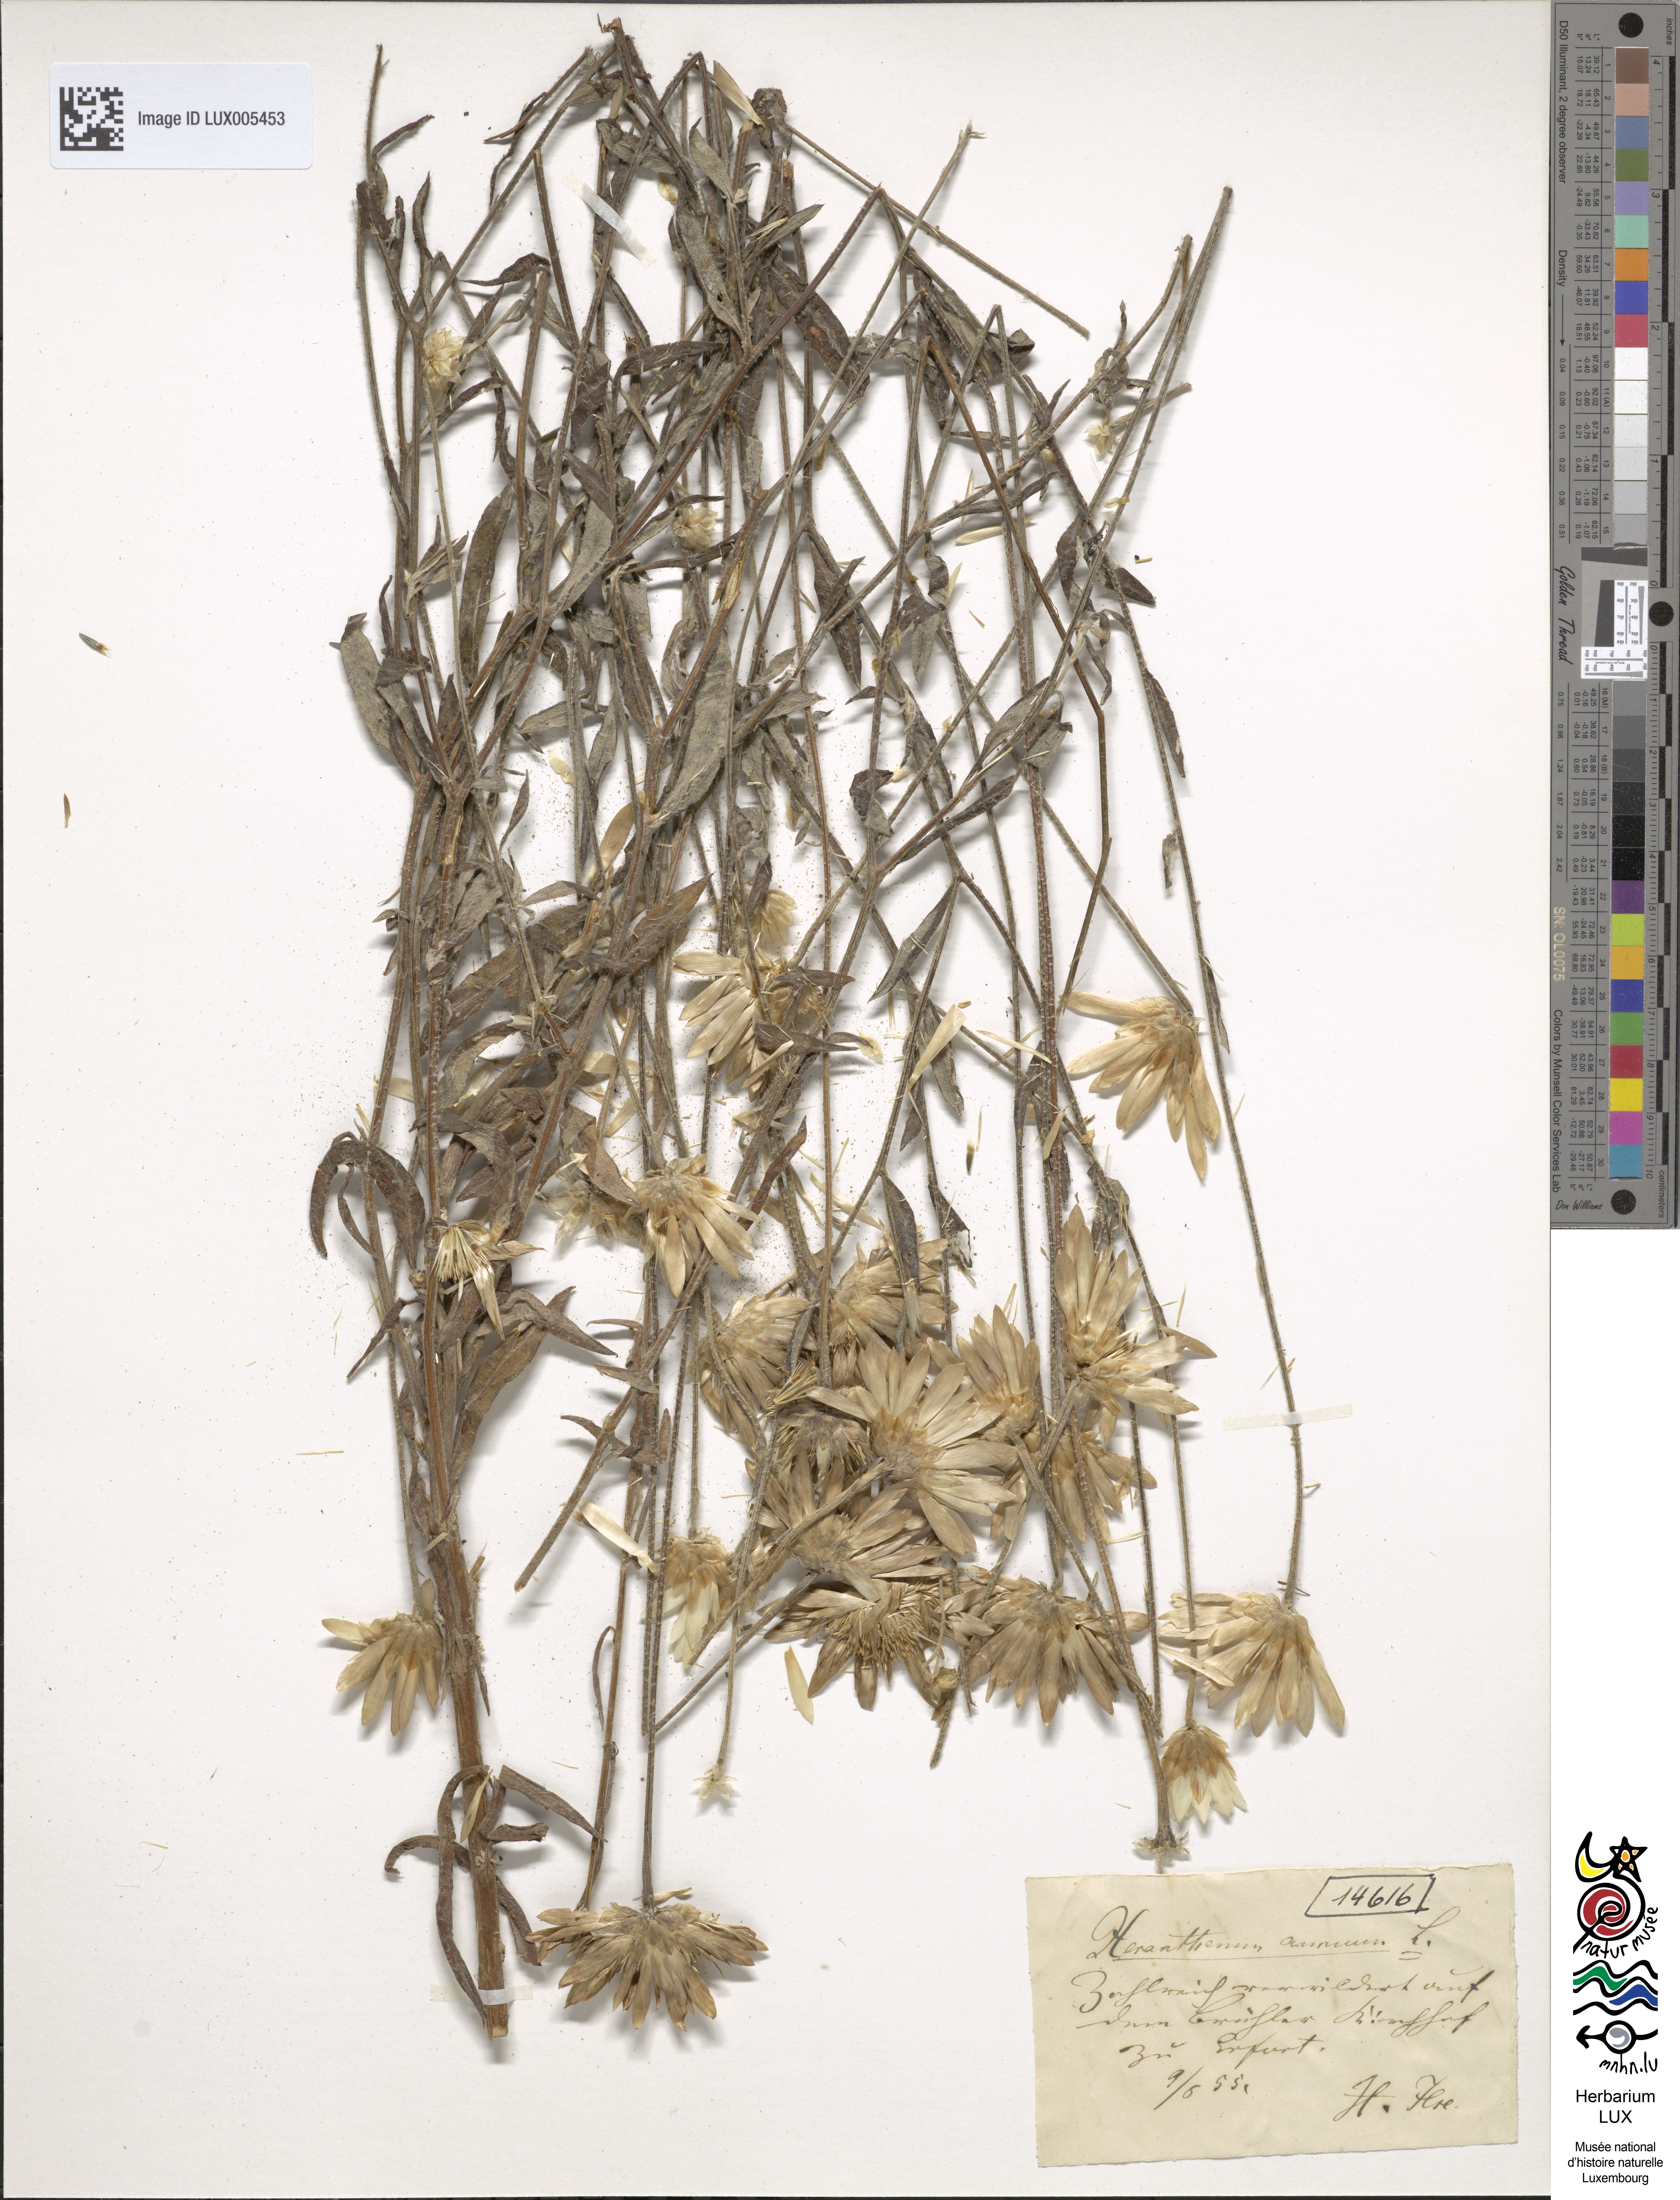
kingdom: Plantae
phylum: Tracheophyta
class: Magnoliopsida
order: Asterales
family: Asteraceae
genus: Xeranthemum
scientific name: Xeranthemum annuum
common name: Immortelle
